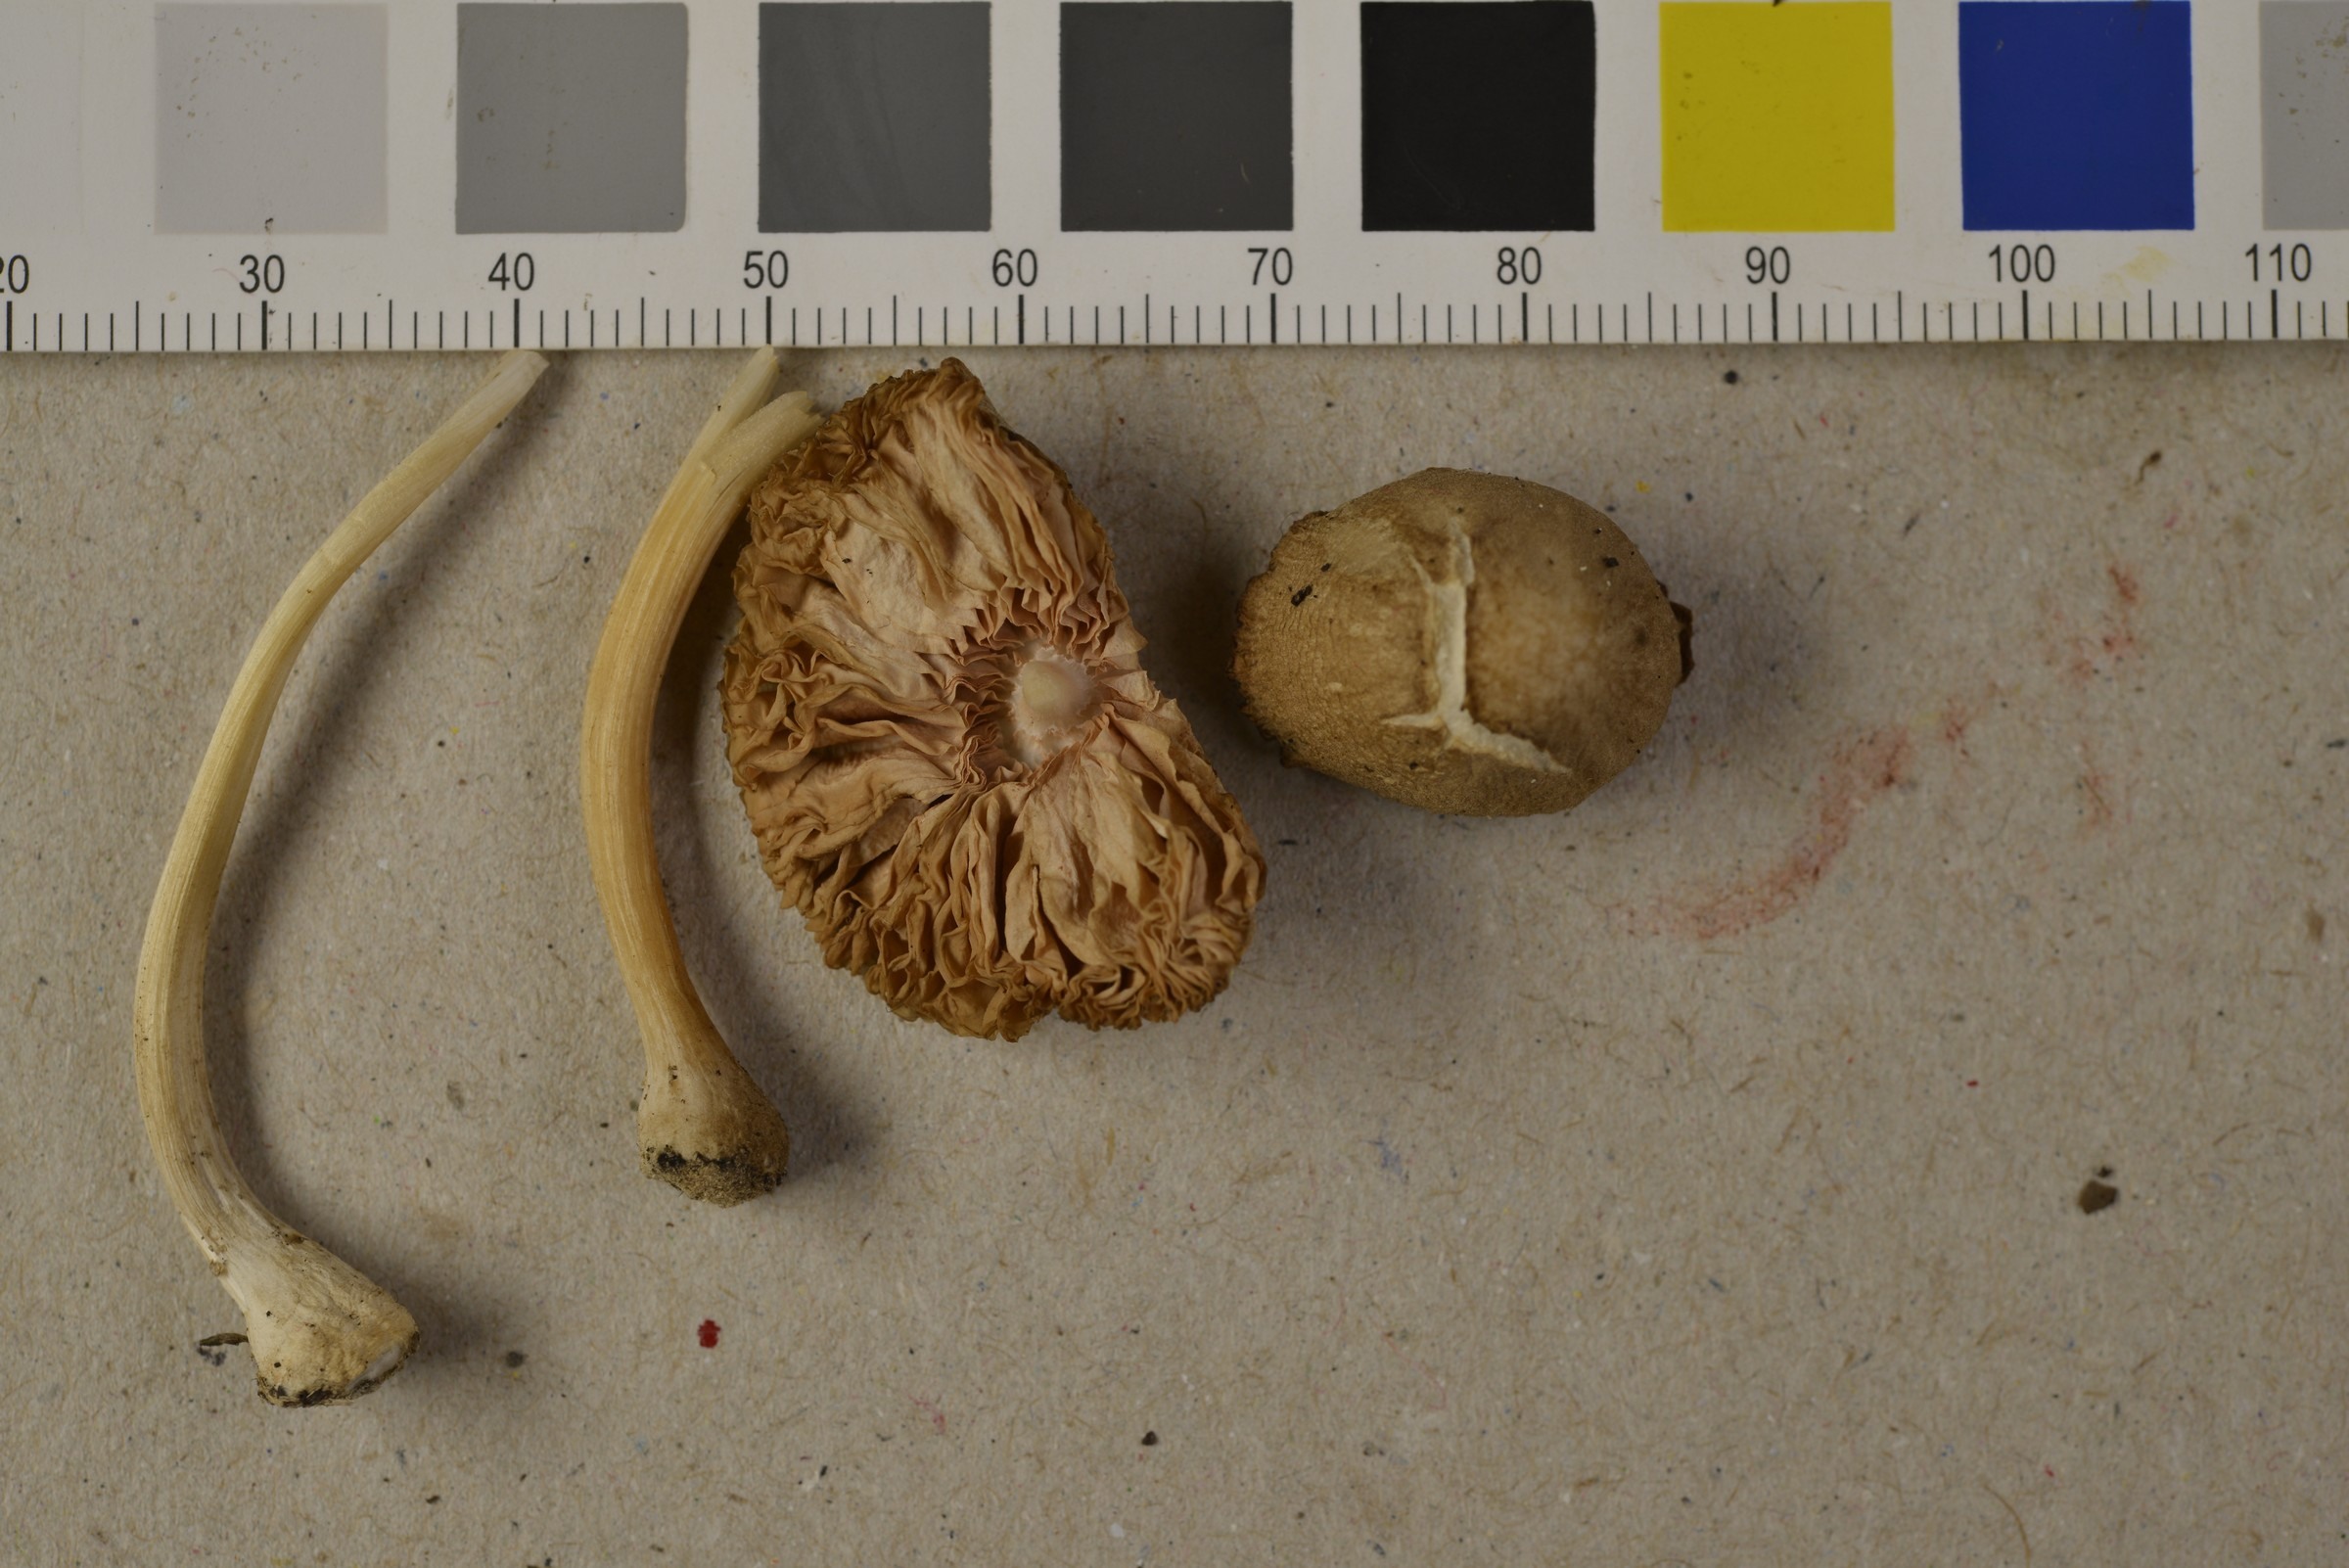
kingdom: Fungi
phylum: Basidiomycota
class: Agaricomycetes
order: Agaricales
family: Pluteaceae
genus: Pluteus
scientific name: Pluteus cinereofuscus
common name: Ashen shield
